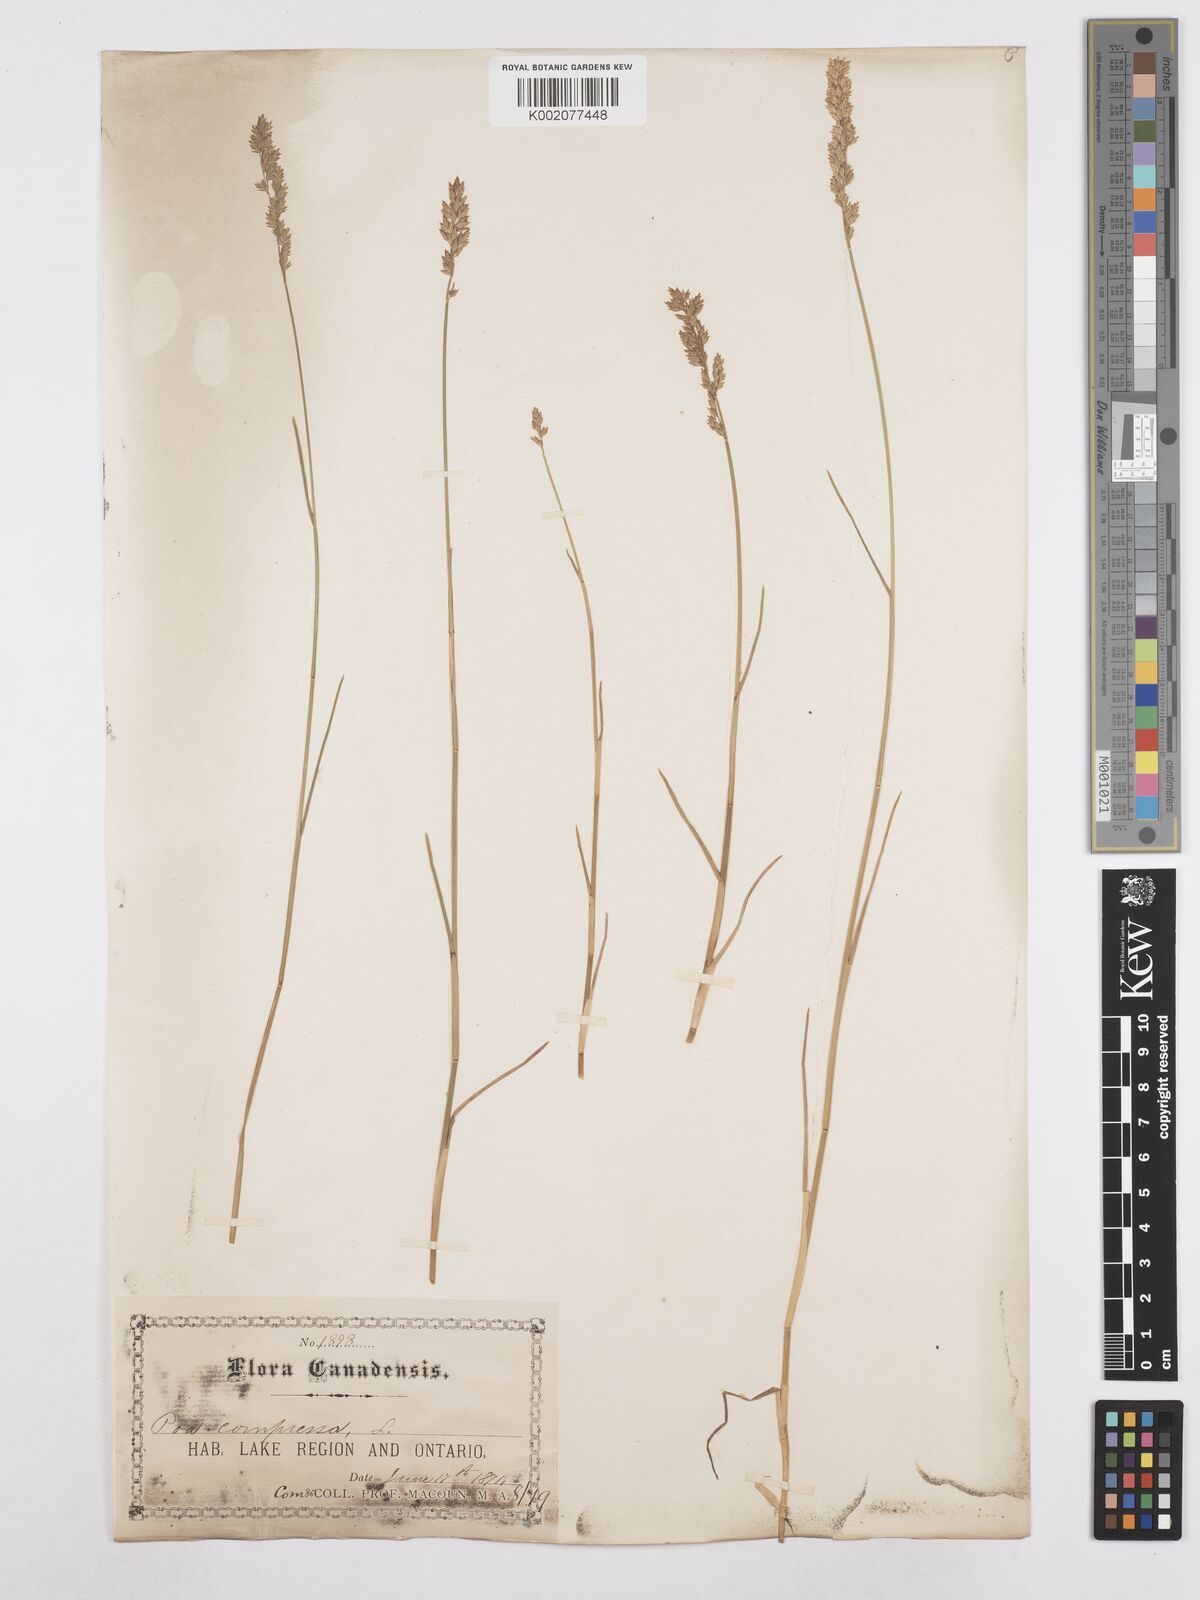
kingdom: Plantae
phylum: Tracheophyta
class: Liliopsida
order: Poales
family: Poaceae
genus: Poa
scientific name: Poa compressa
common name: Canada bluegrass
